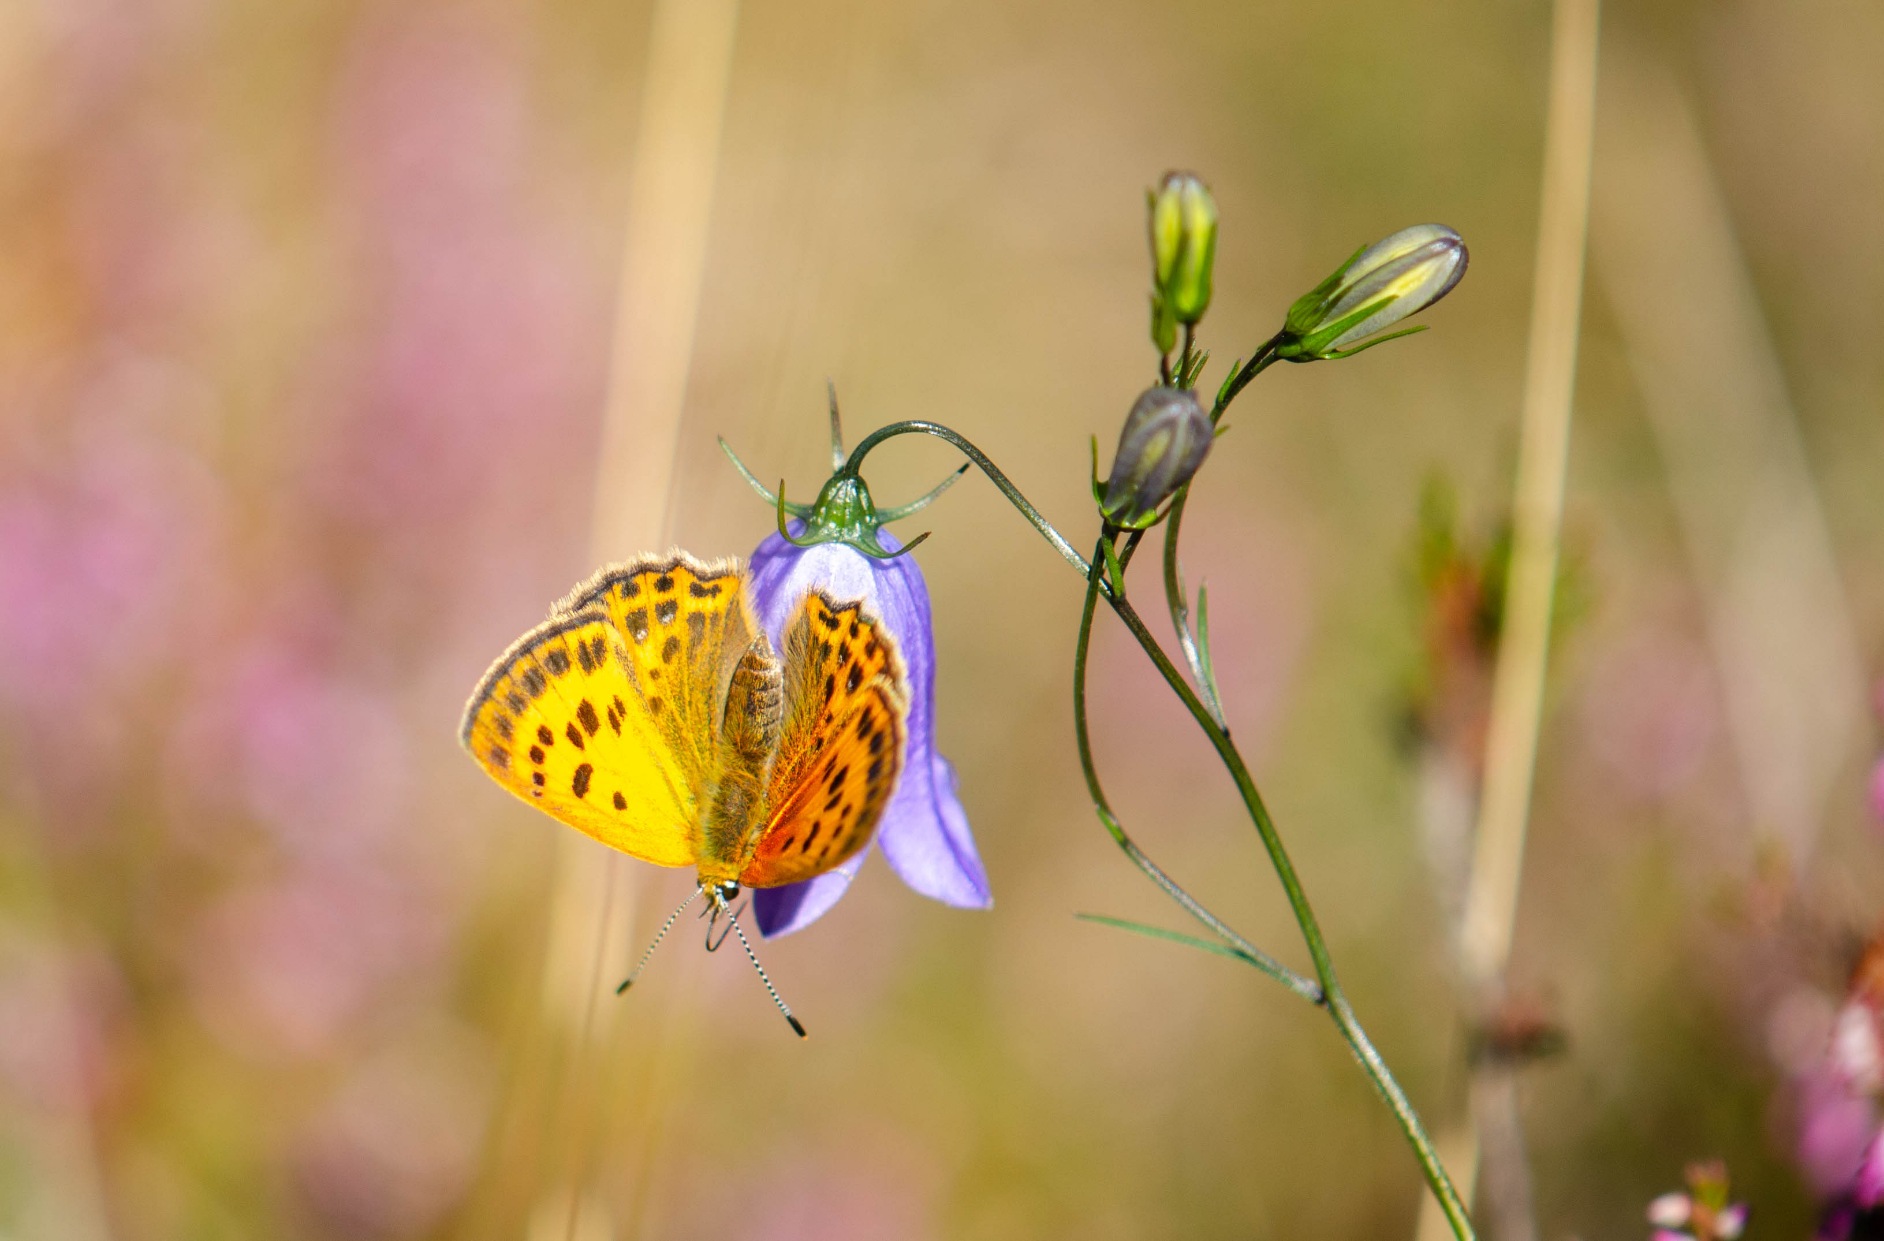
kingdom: Animalia
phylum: Arthropoda
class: Insecta
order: Lepidoptera
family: Lycaenidae
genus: Lycaena
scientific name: Lycaena virgaureae
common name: Dukatsommerfugl
